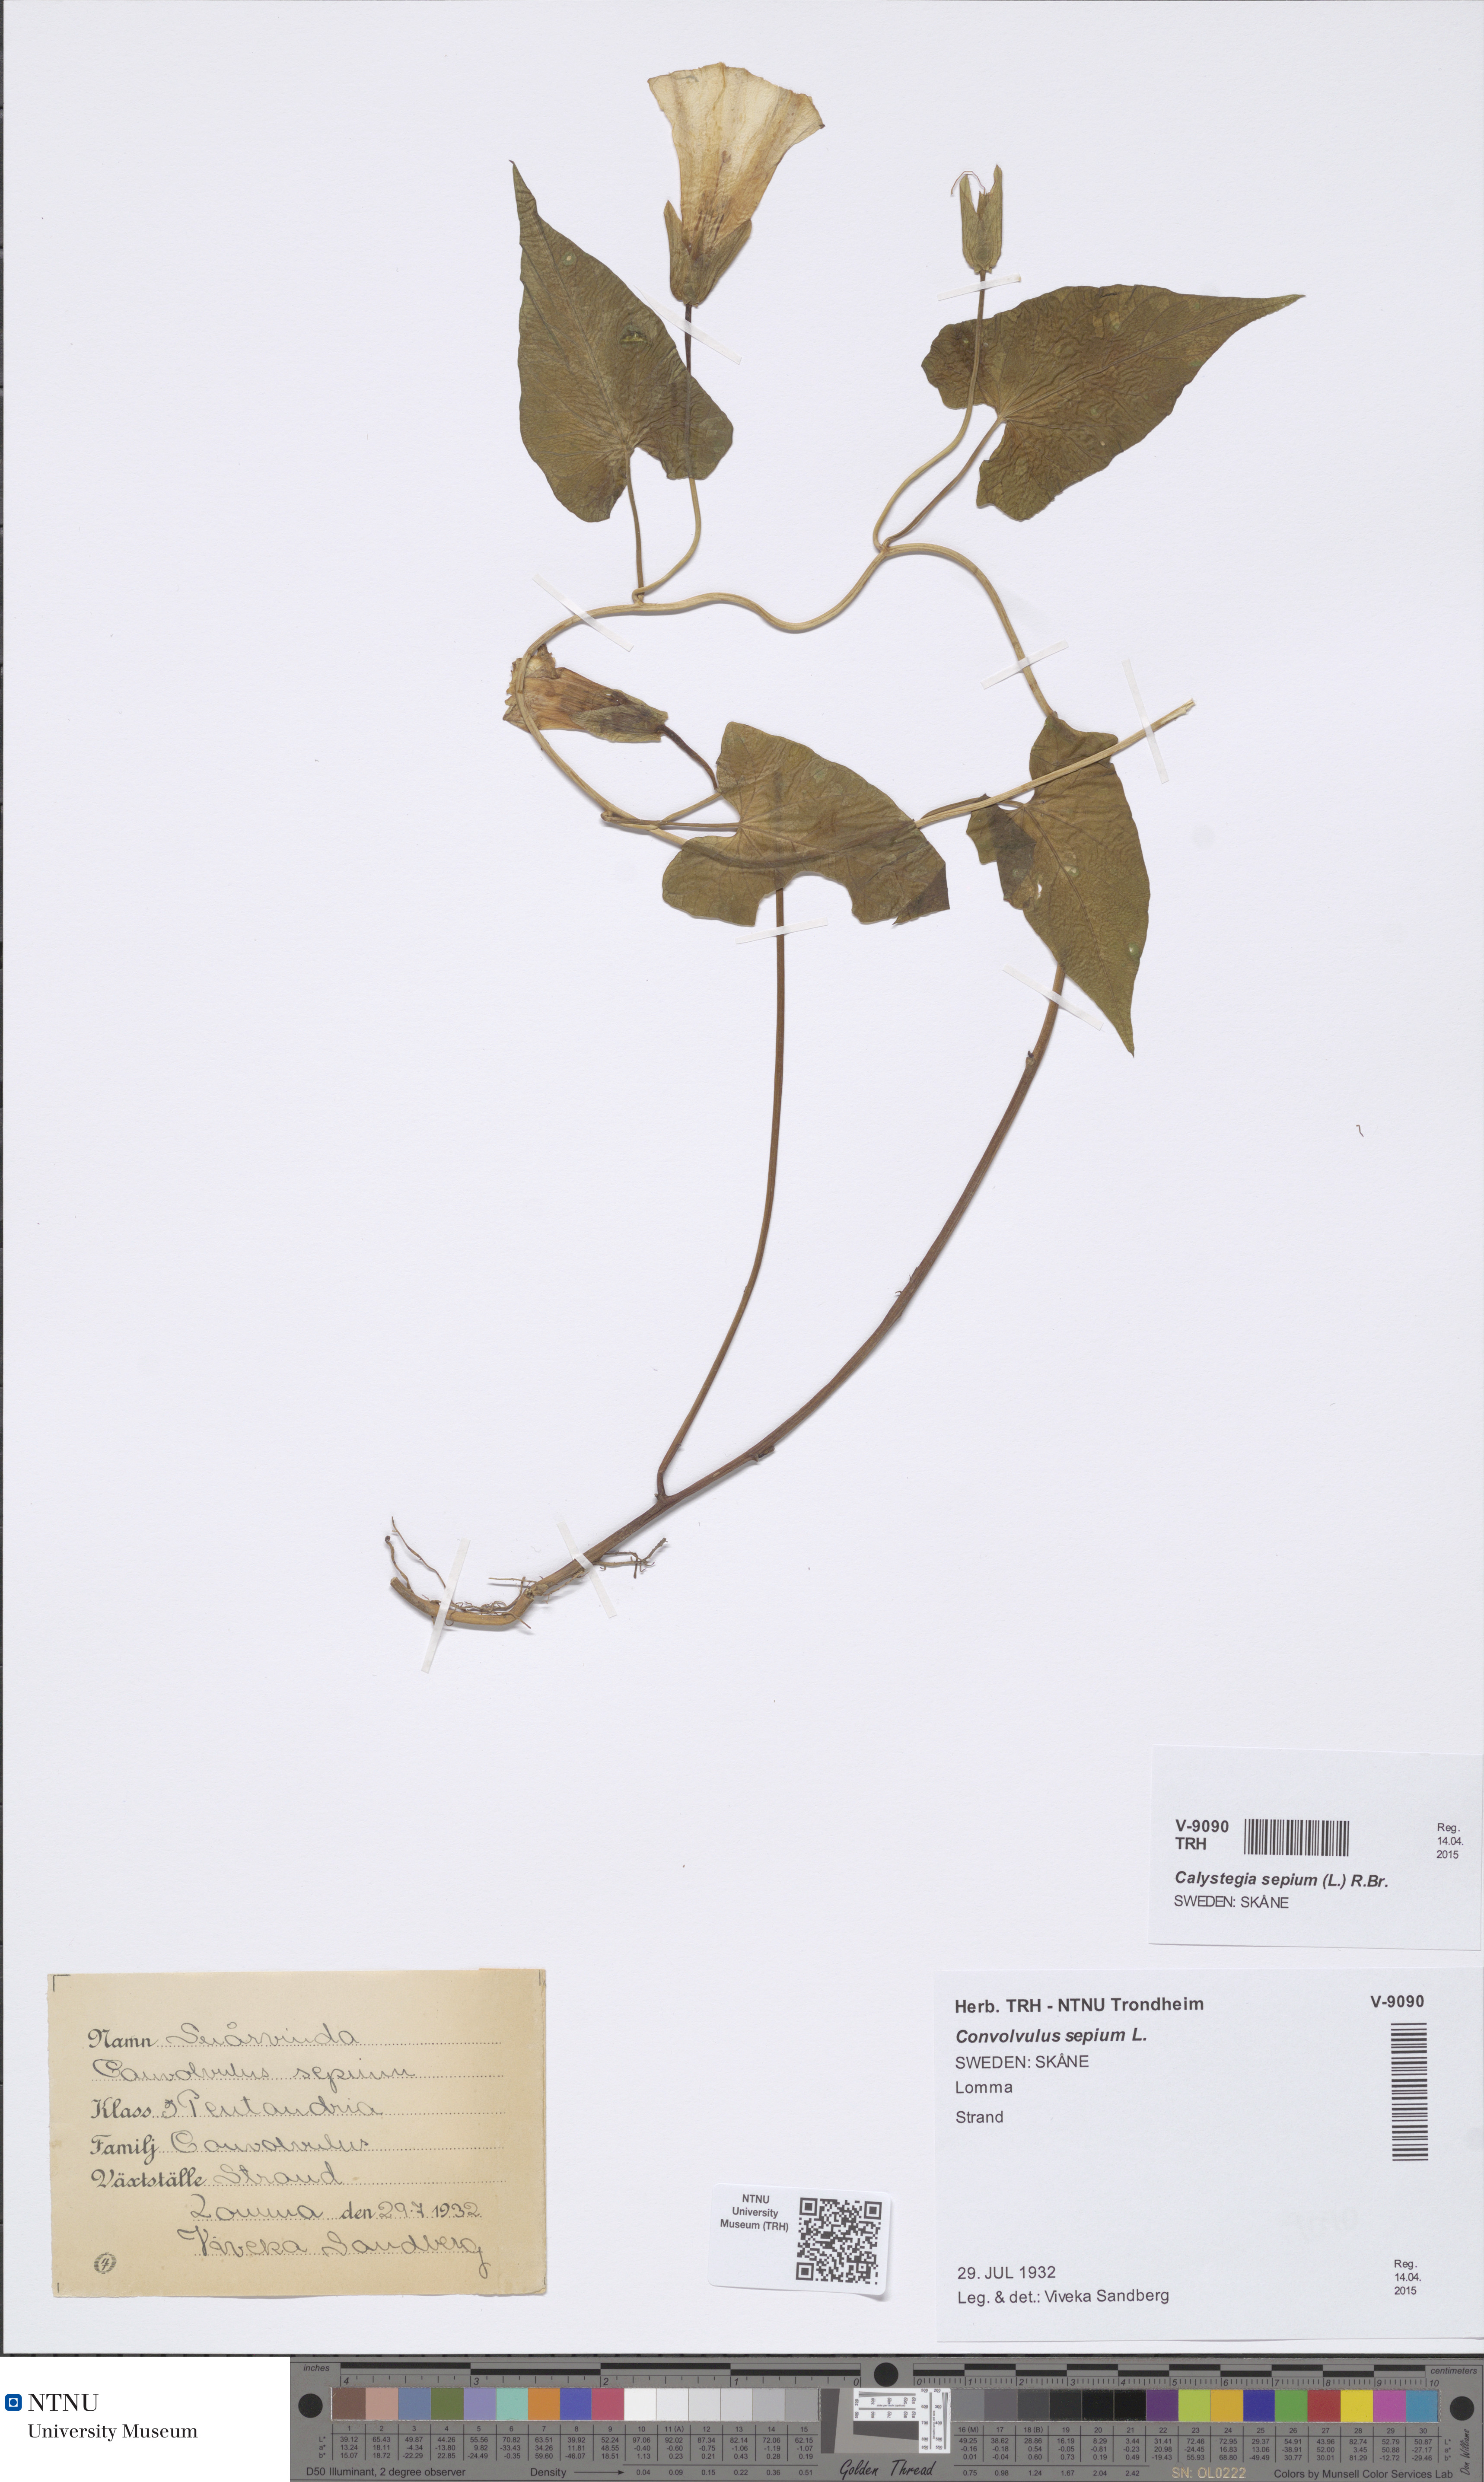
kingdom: Plantae
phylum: Tracheophyta
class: Magnoliopsida
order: Solanales
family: Convolvulaceae
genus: Calystegia
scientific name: Calystegia sepium
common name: Hedge bindweed
